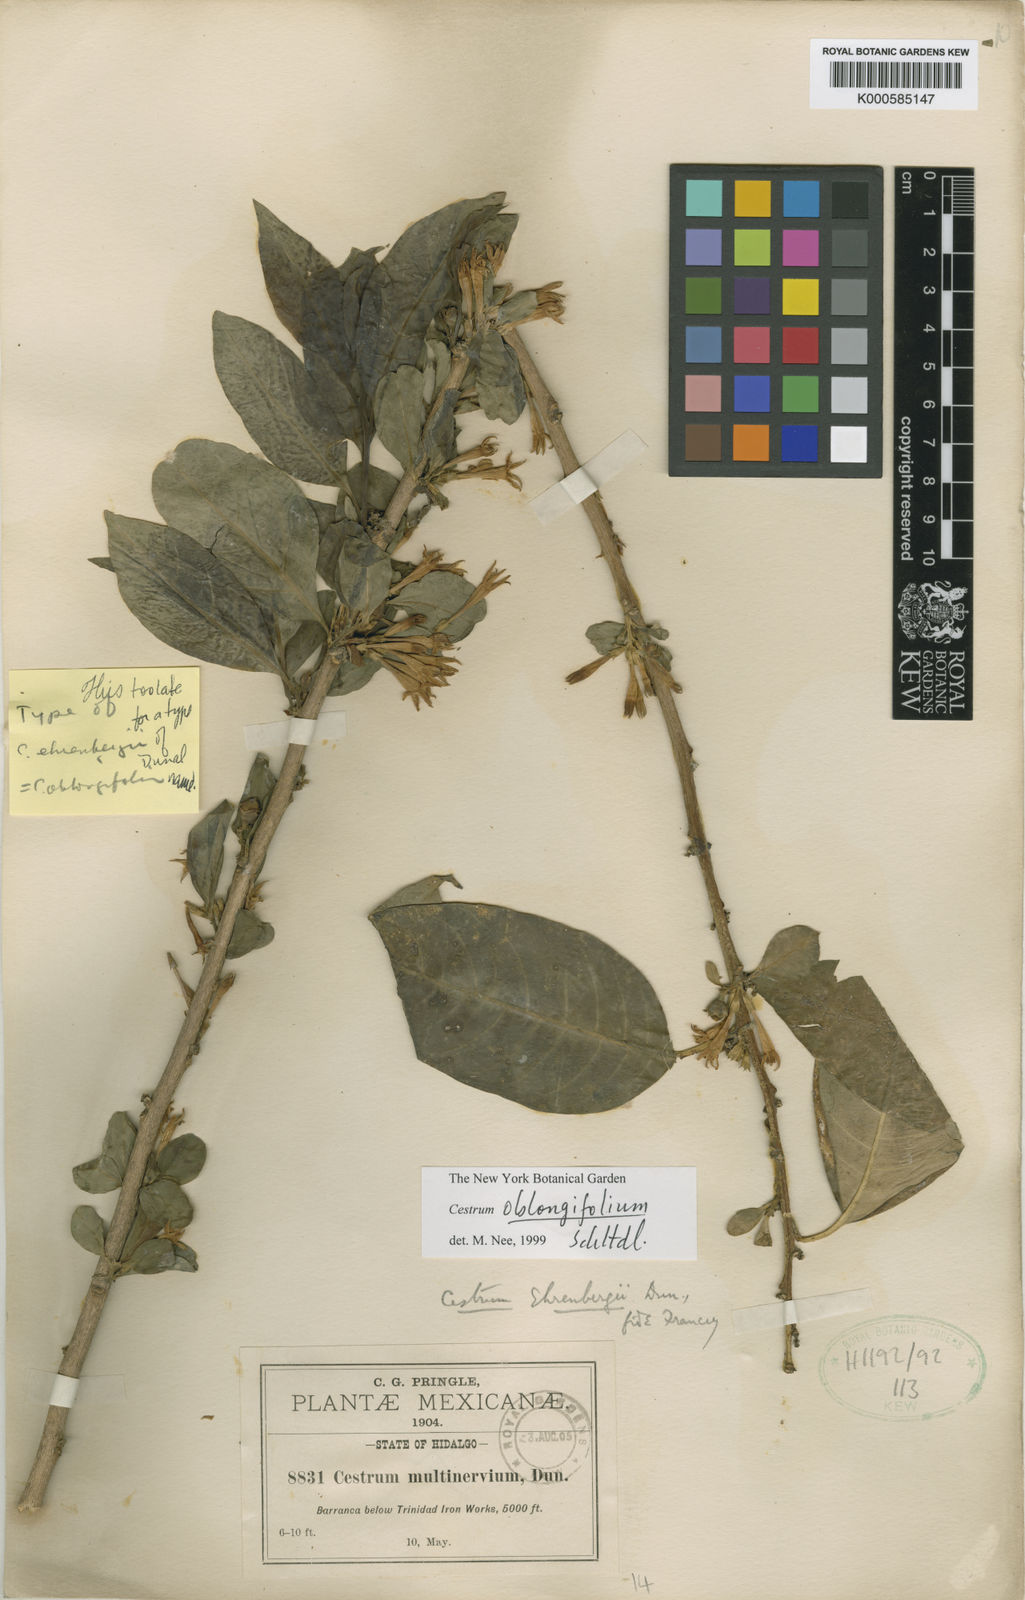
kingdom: Plantae
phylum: Tracheophyta
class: Magnoliopsida
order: Solanales
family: Solanaceae
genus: Cestrum
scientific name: Cestrum oblongifolium
